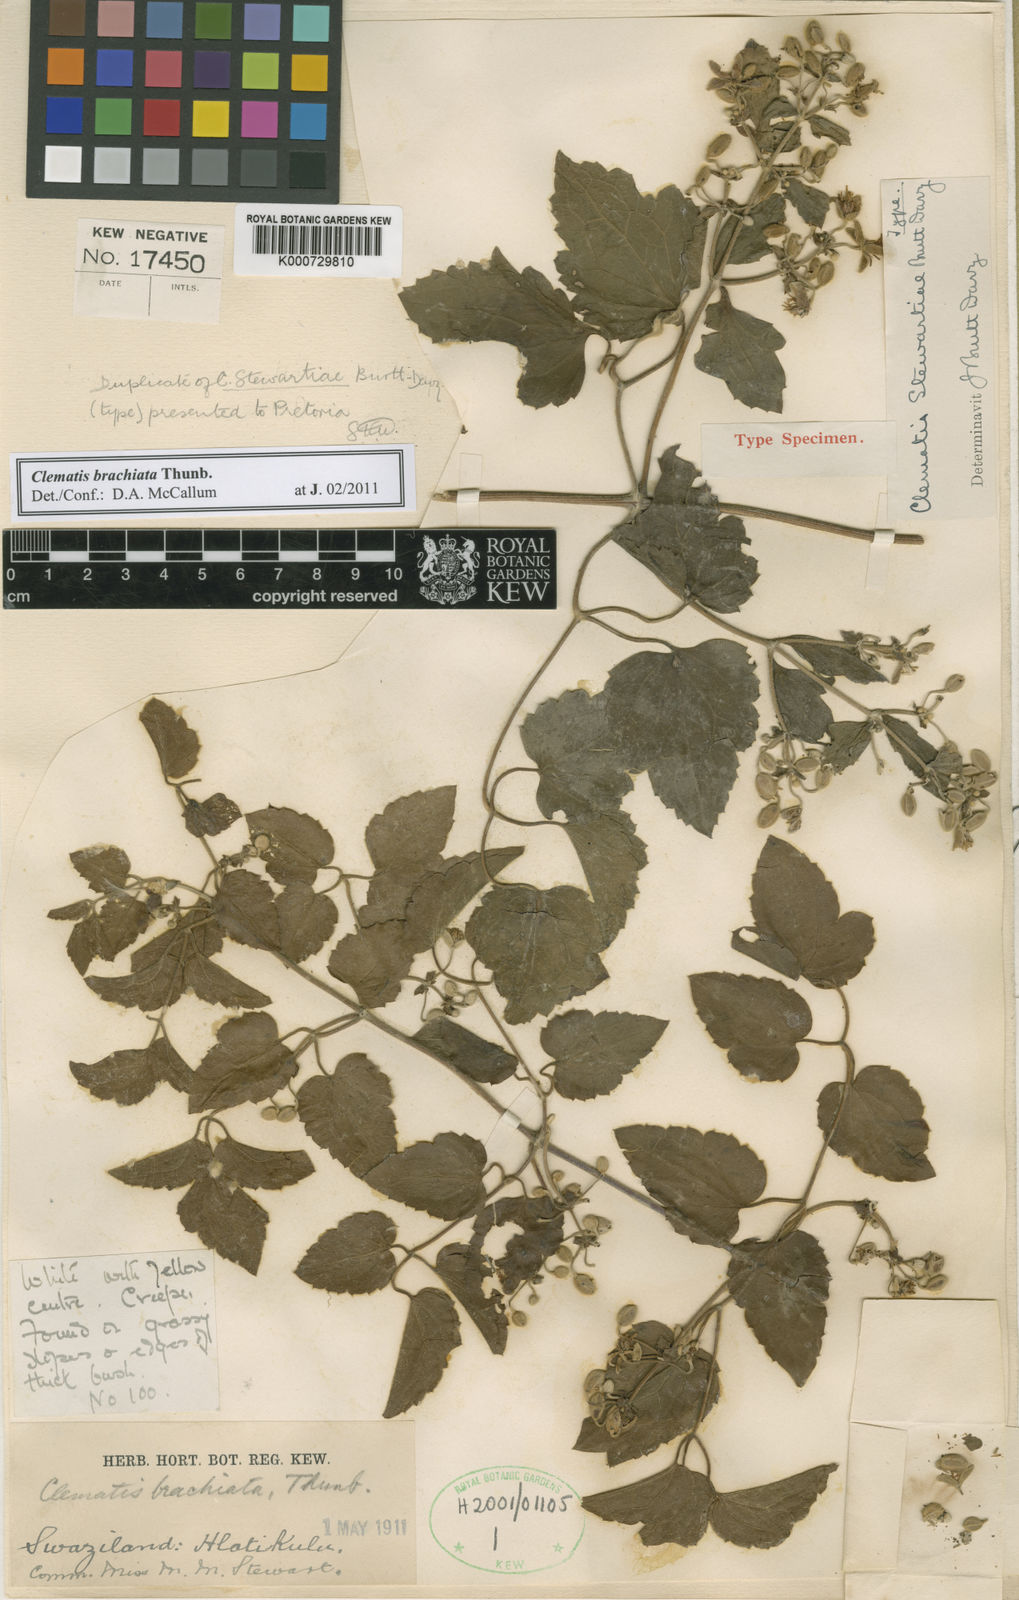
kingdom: Plantae
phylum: Tracheophyta
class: Magnoliopsida
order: Ranunculales
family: Ranunculaceae
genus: Clematis
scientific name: Clematis brachiata
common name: Traveler's-joy
